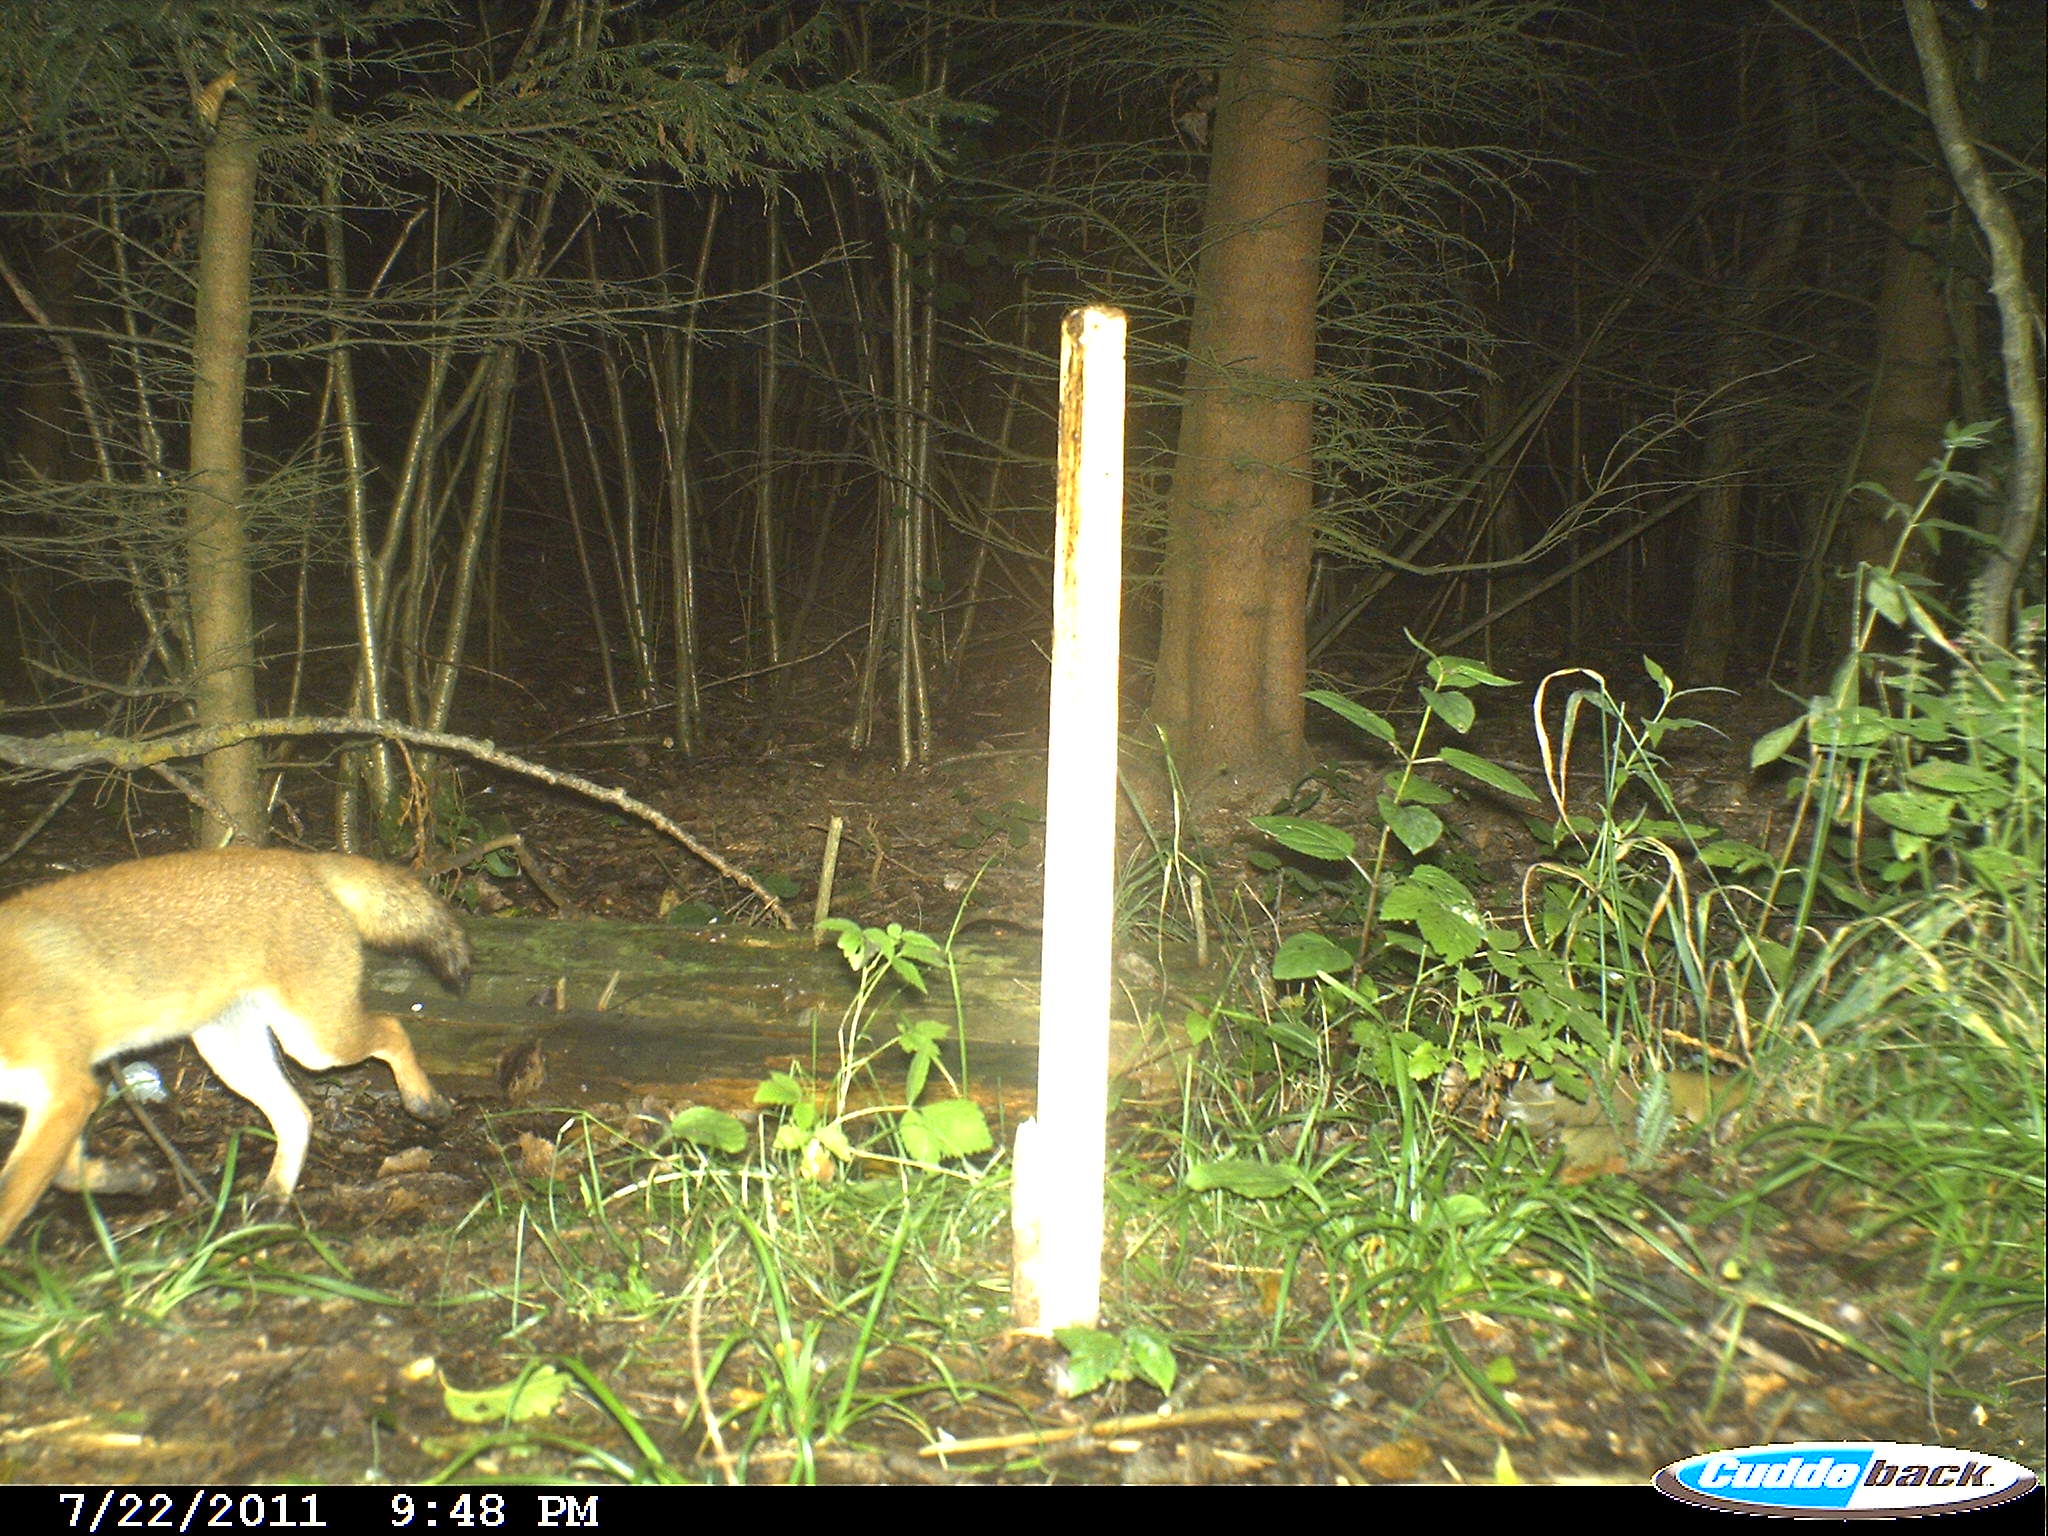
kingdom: Animalia
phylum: Chordata
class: Mammalia
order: Carnivora
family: Canidae
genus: Vulpes
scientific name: Vulpes vulpes
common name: Red fox
